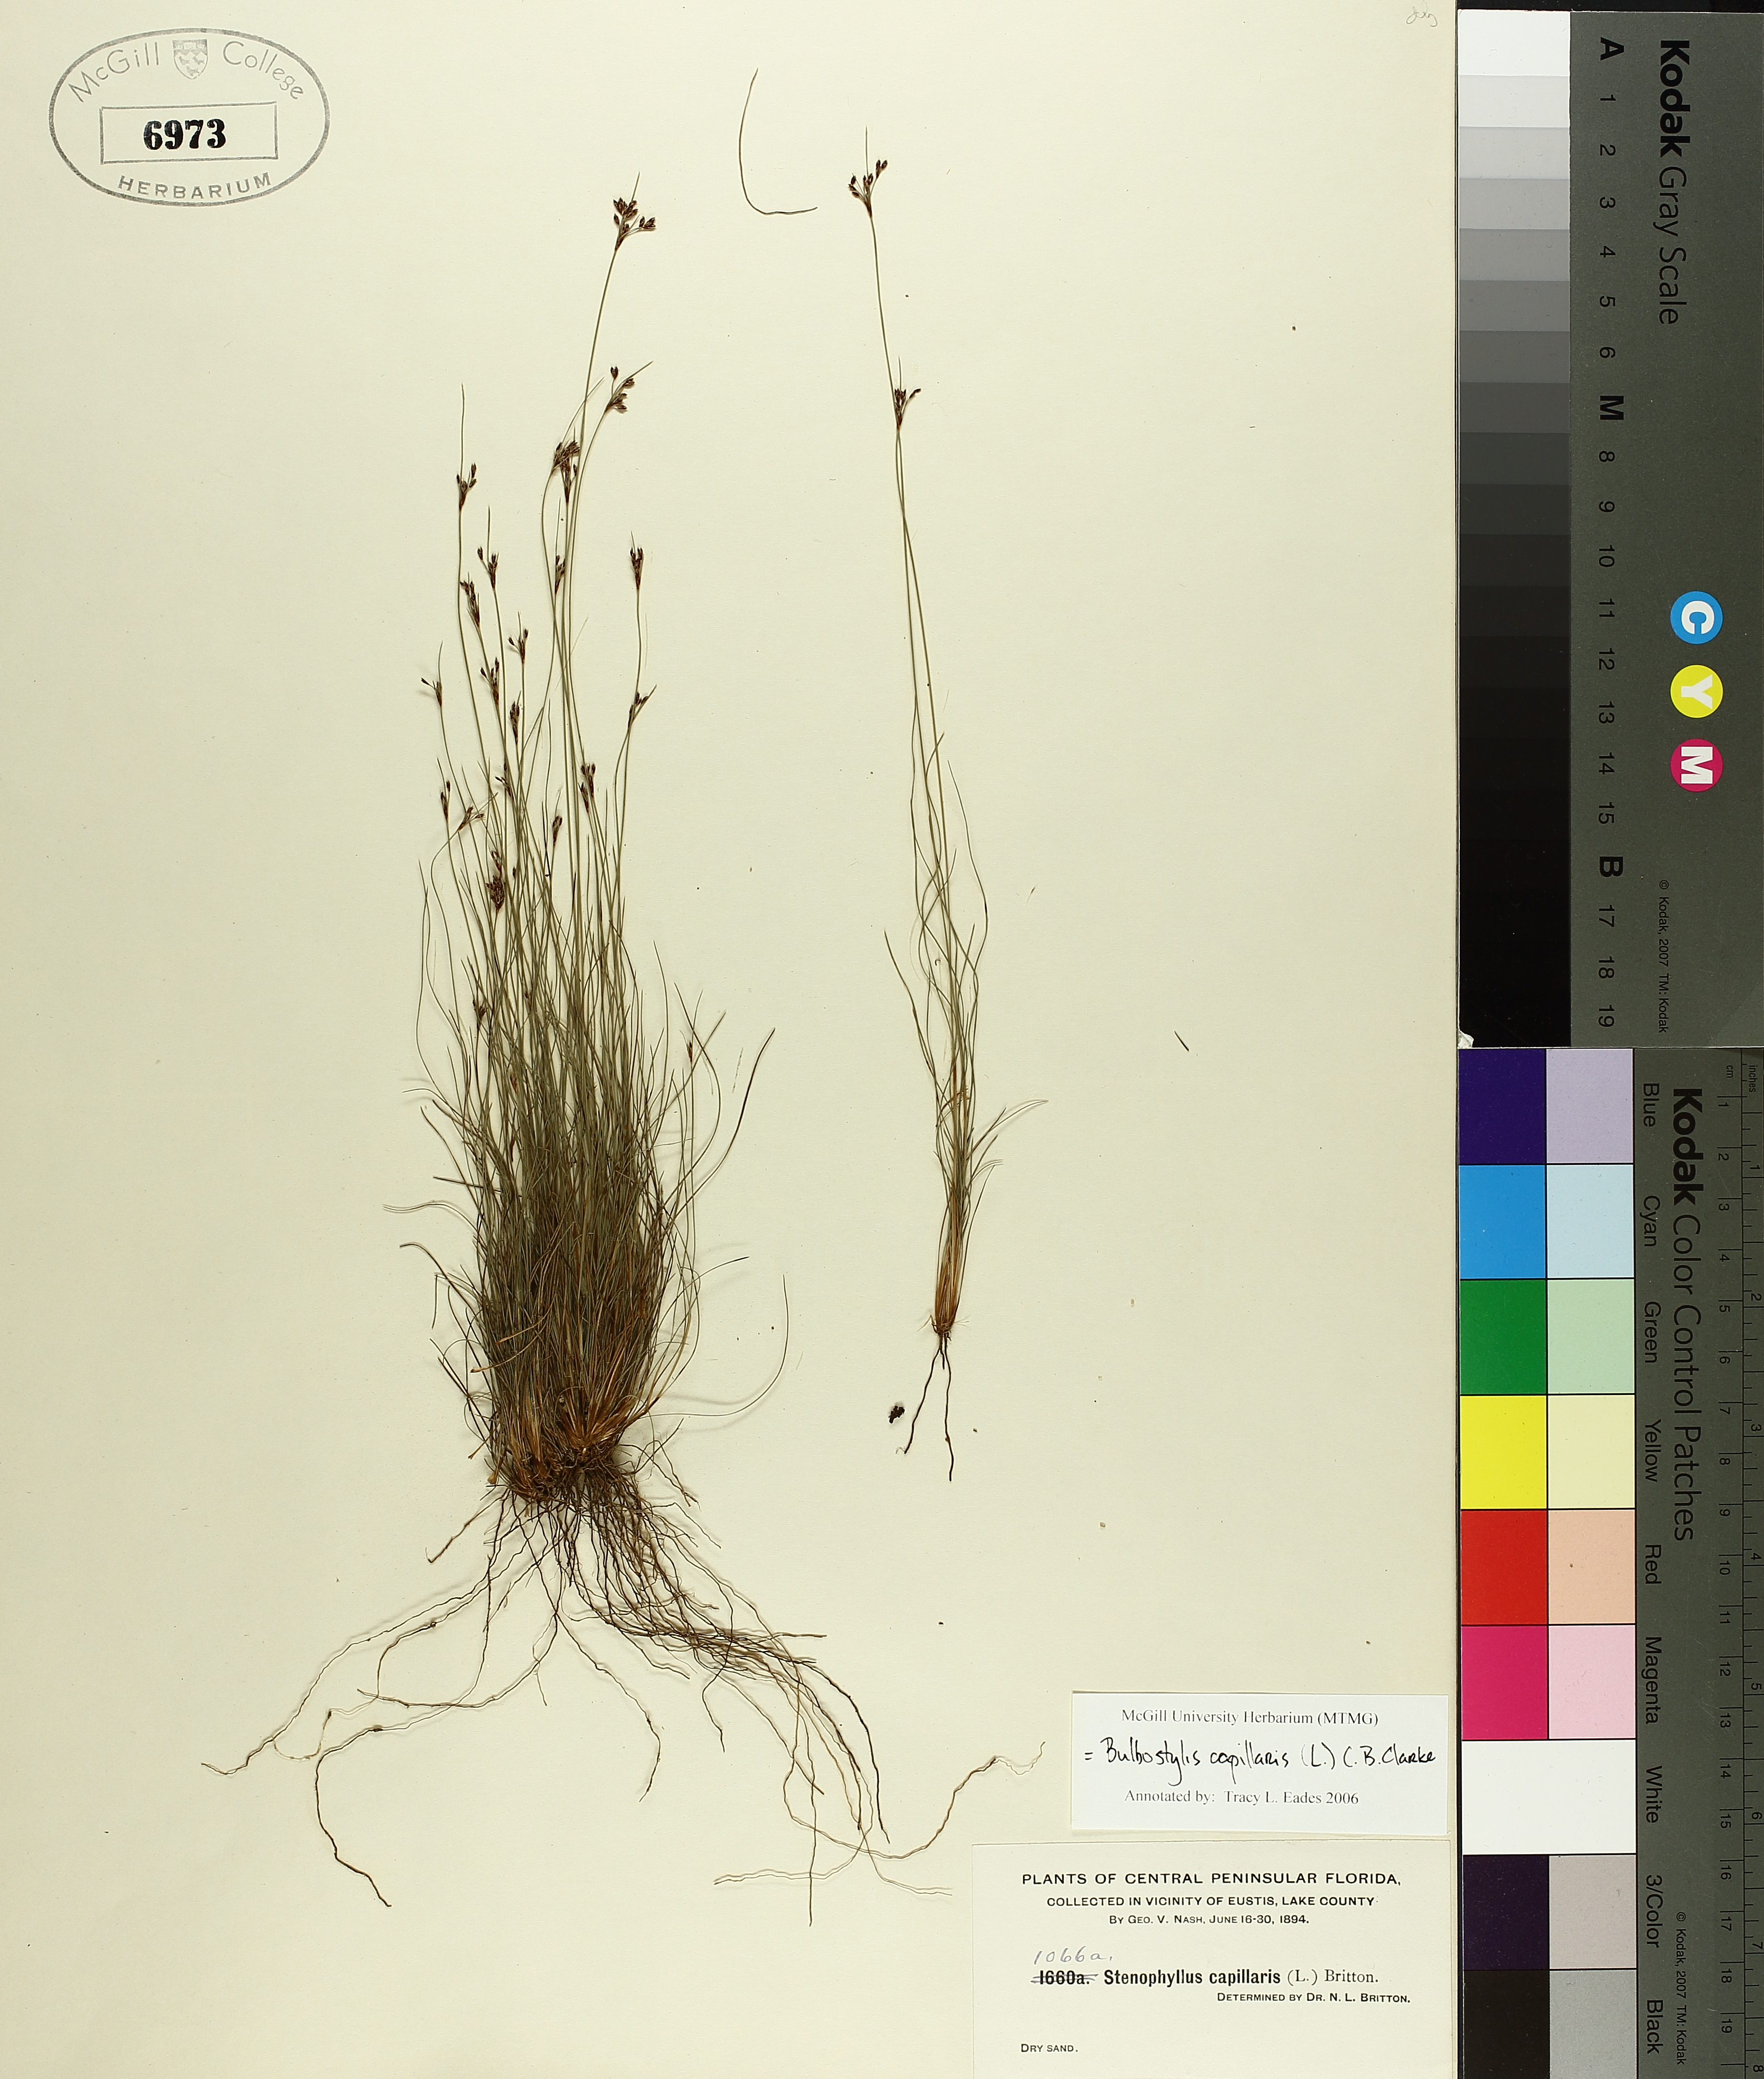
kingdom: Plantae
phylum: Tracheophyta
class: Liliopsida
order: Poales
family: Cyperaceae
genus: Bulbostylis
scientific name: Bulbostylis capillaris
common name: Densetuft hairsedge
